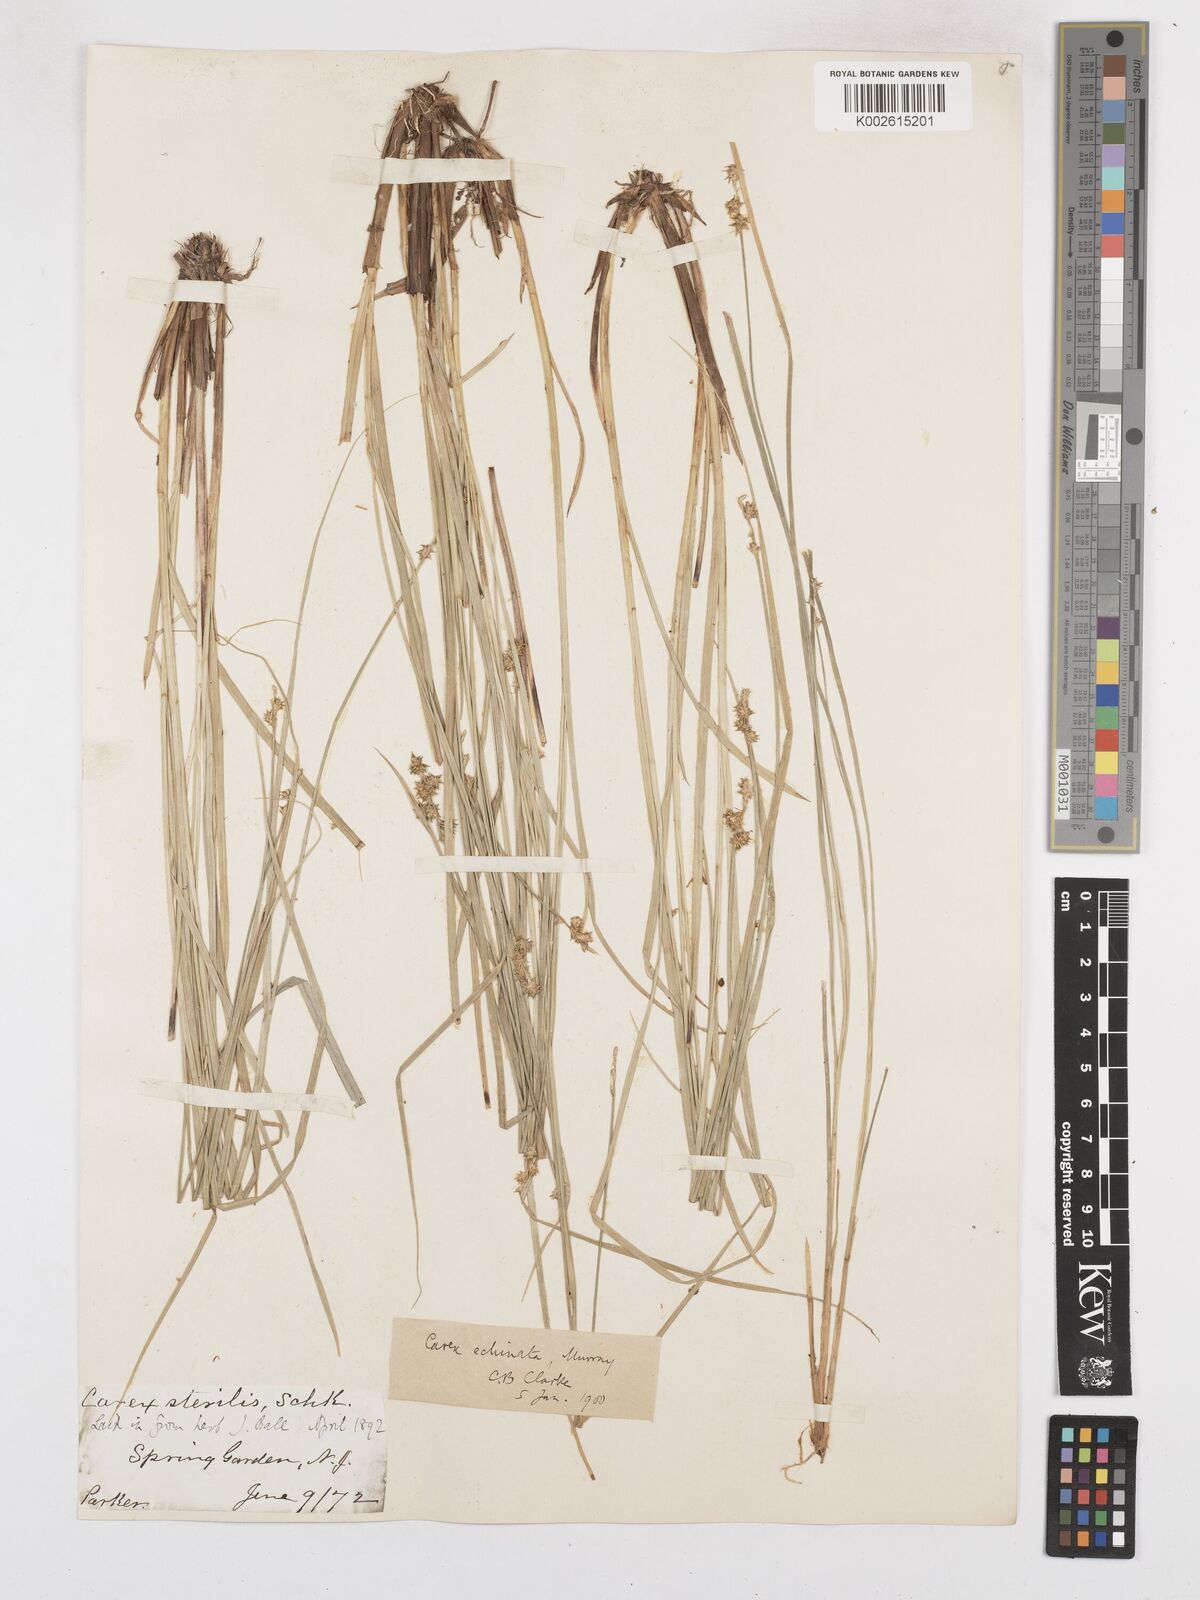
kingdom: Plantae
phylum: Tracheophyta
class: Liliopsida
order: Poales
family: Cyperaceae
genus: Carex
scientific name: Carex echinata
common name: Star sedge
